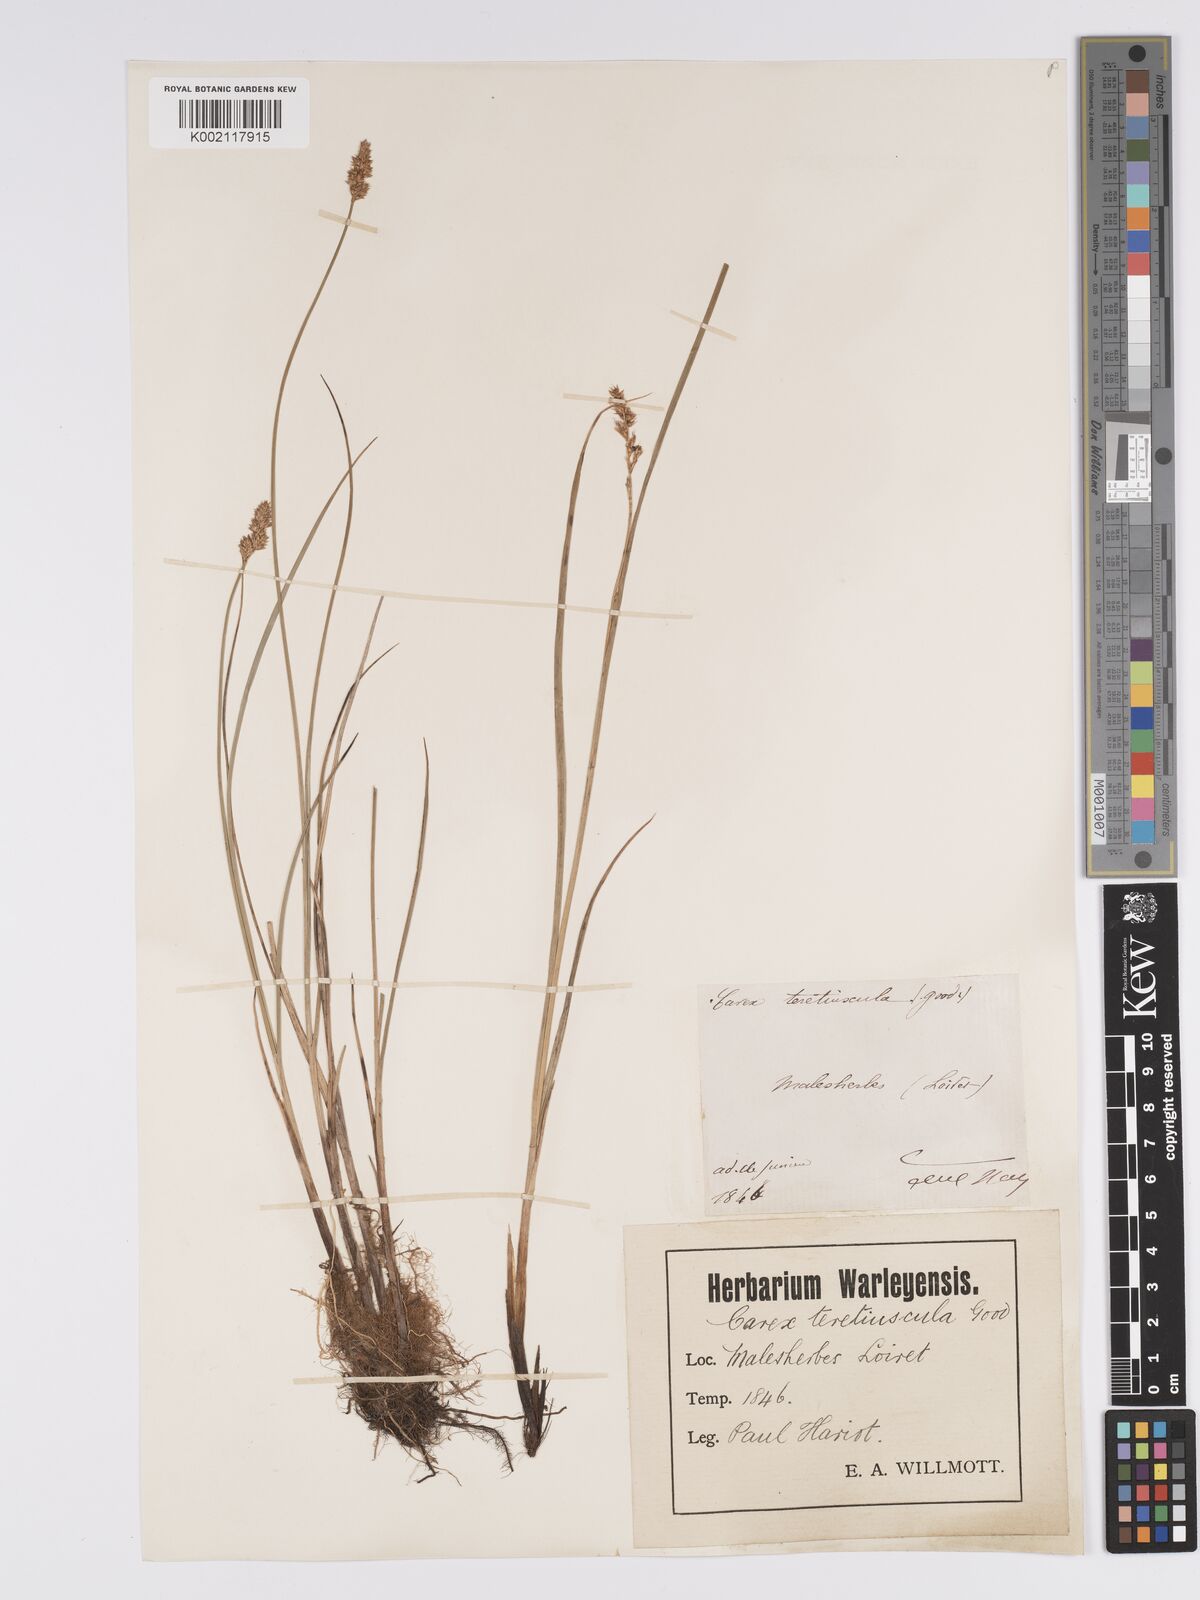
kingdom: Plantae
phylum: Tracheophyta
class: Liliopsida
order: Poales
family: Cyperaceae
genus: Carex
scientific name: Carex diandra
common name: Lesser tussock-sedge
